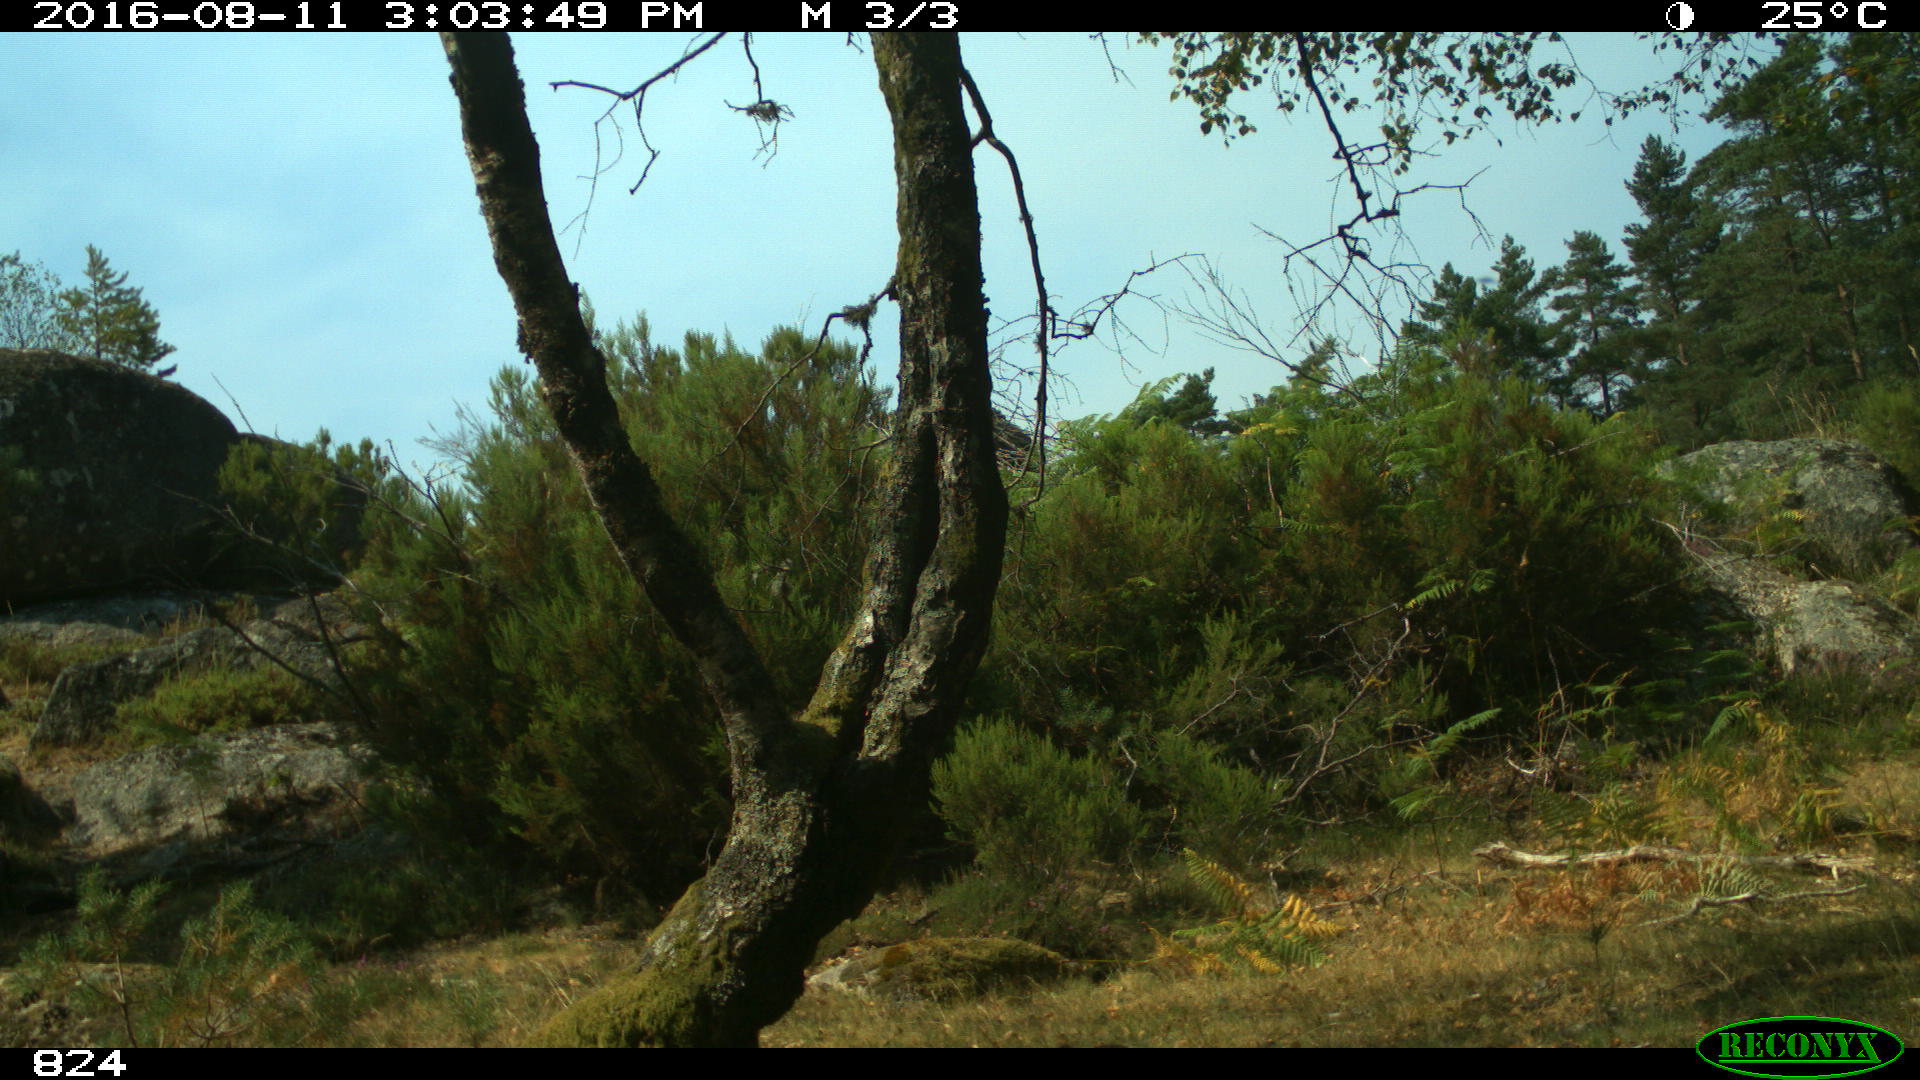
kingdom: Animalia
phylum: Chordata
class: Mammalia
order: Perissodactyla
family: Equidae
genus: Equus
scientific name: Equus caballus
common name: Horse
